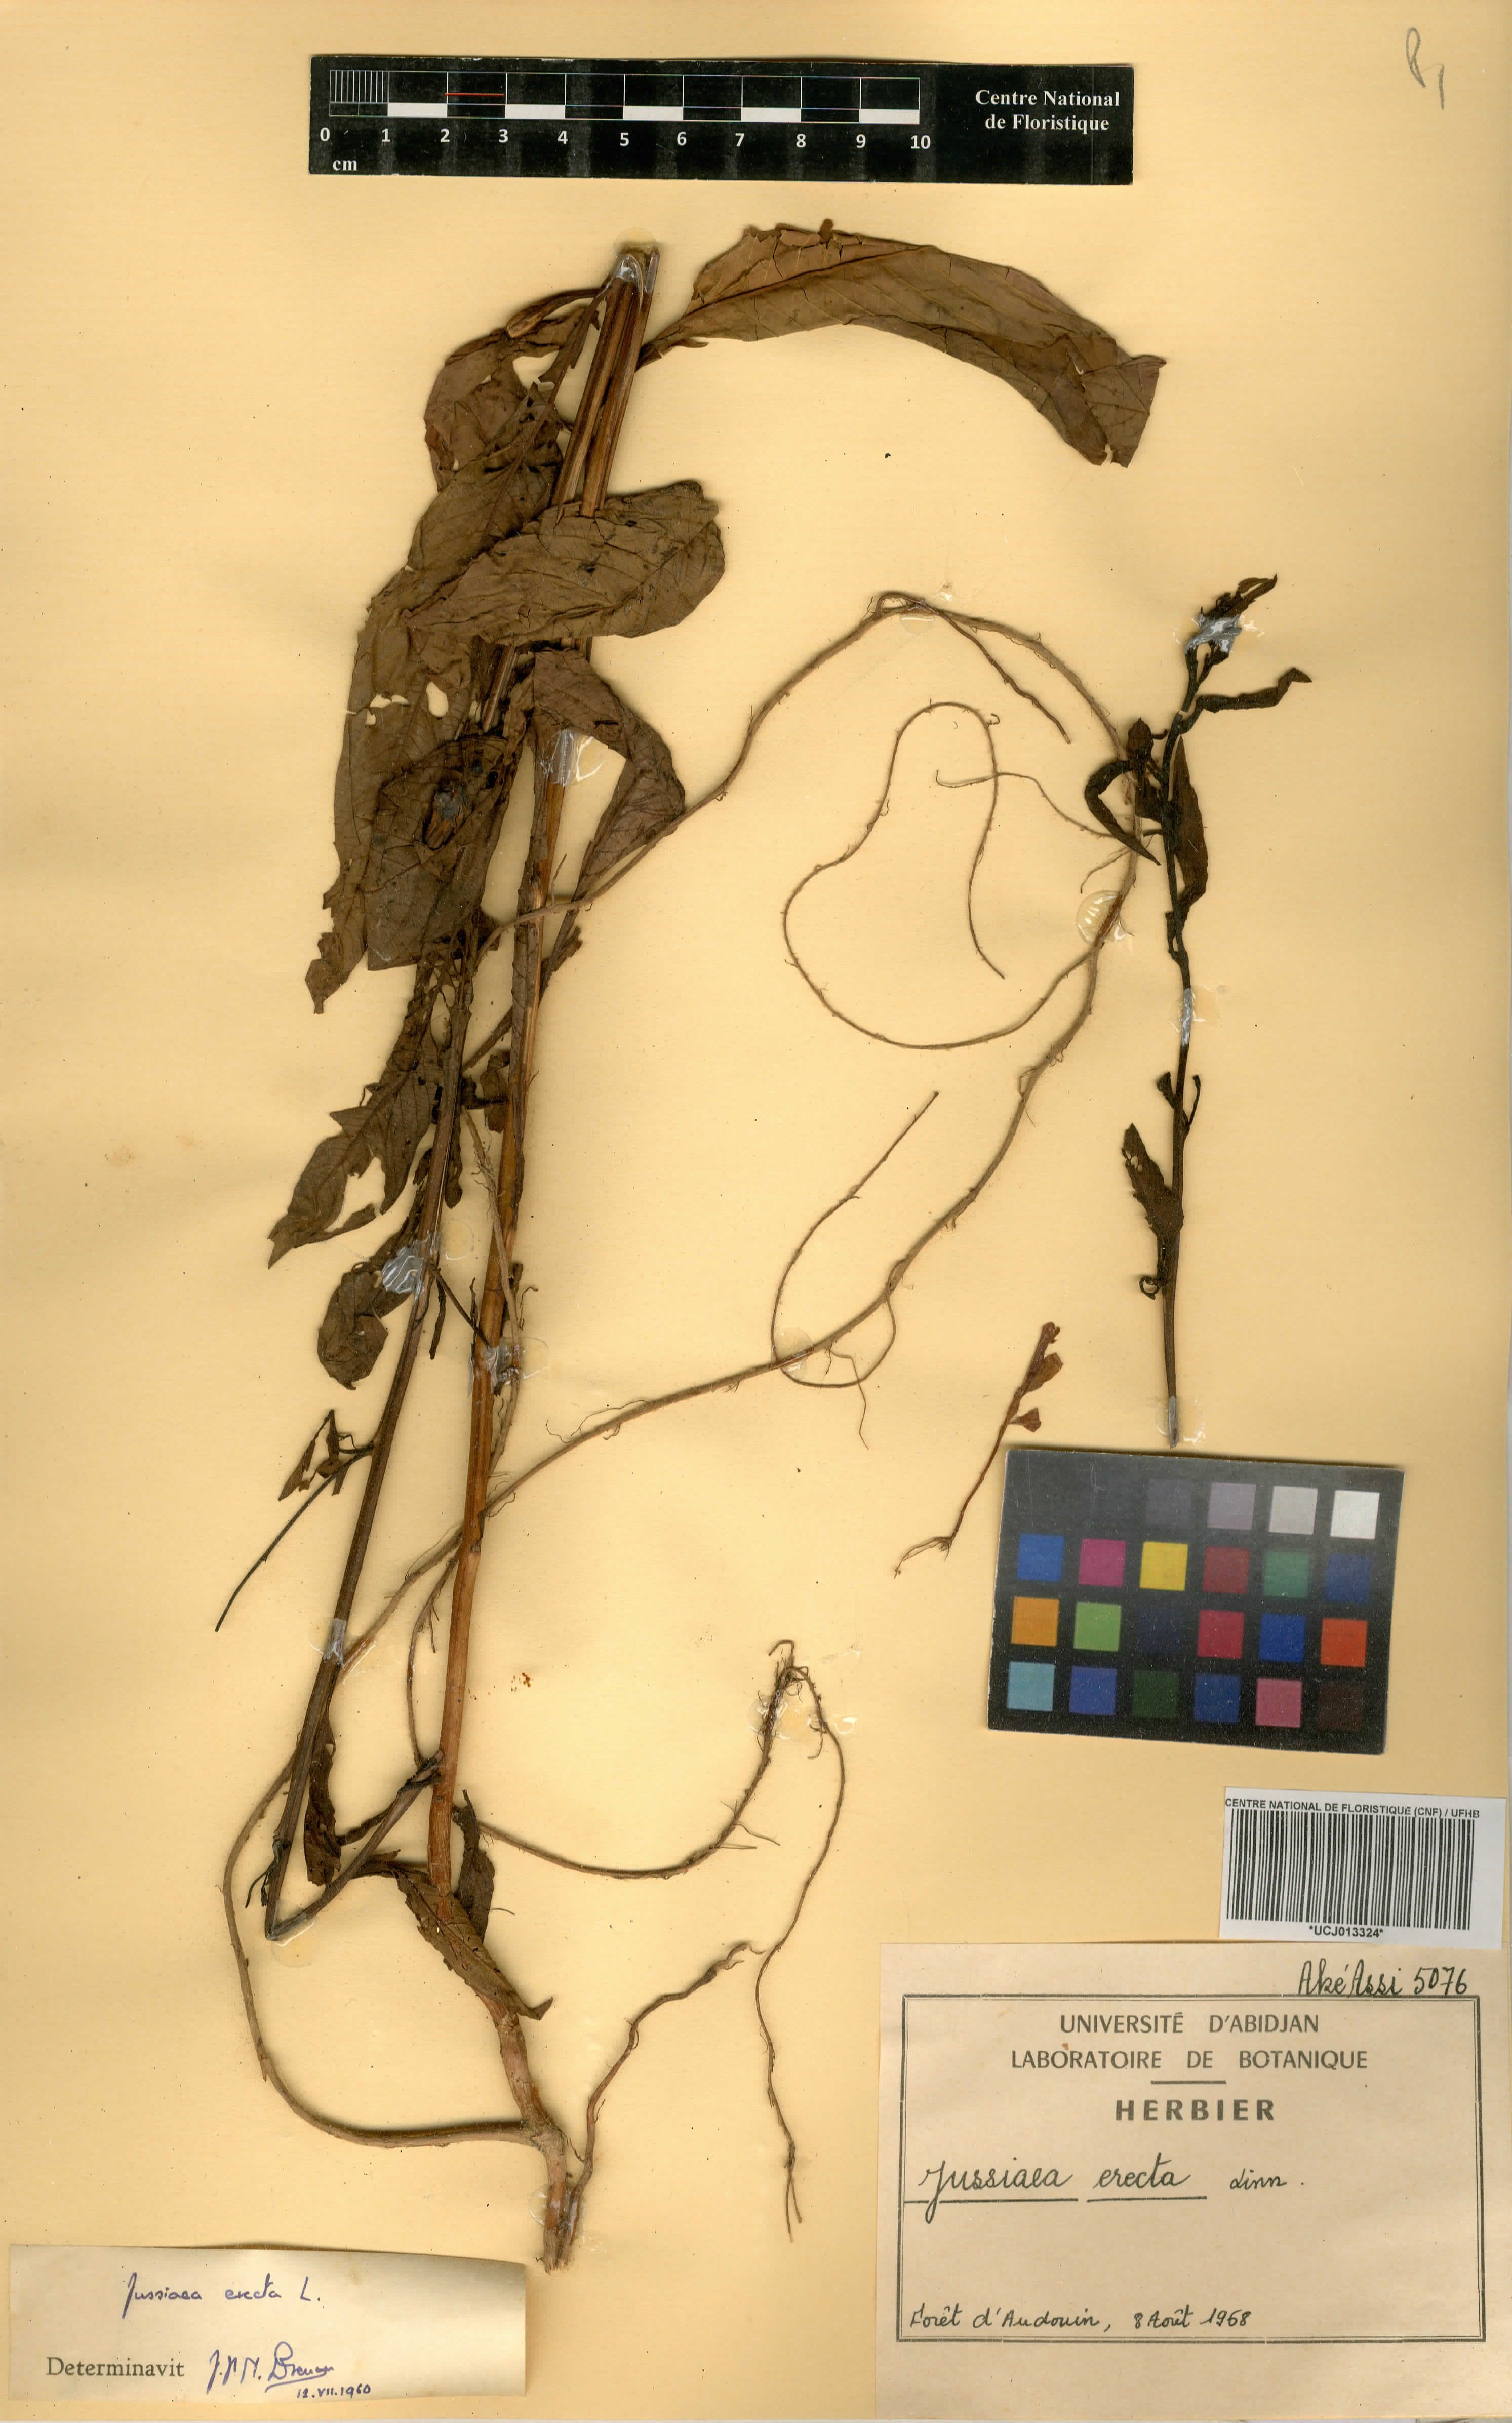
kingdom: Plantae
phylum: Tracheophyta
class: Magnoliopsida
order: Myrtales
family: Onagraceae
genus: Ludwigia
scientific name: Ludwigia erecta
